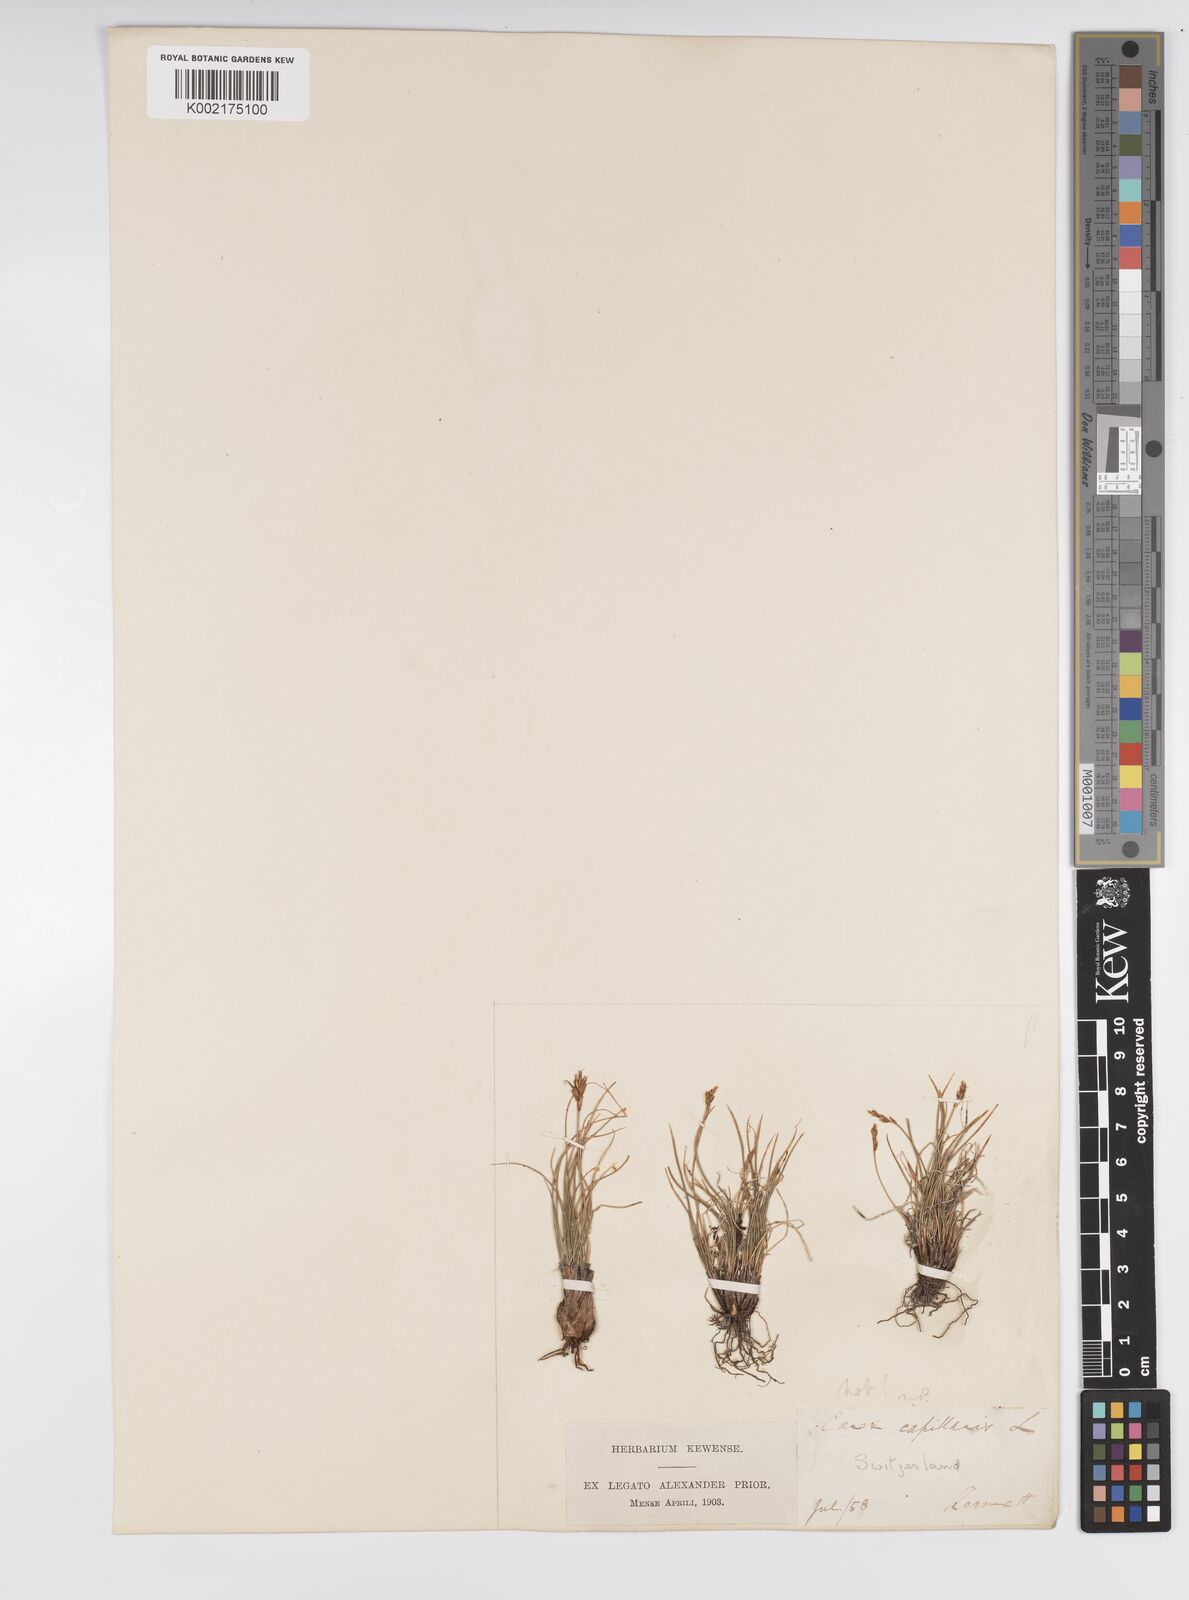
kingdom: Plantae
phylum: Tracheophyta
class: Liliopsida
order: Poales
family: Cyperaceae
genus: Carex
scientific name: Carex capillaris
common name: Hair sedge
